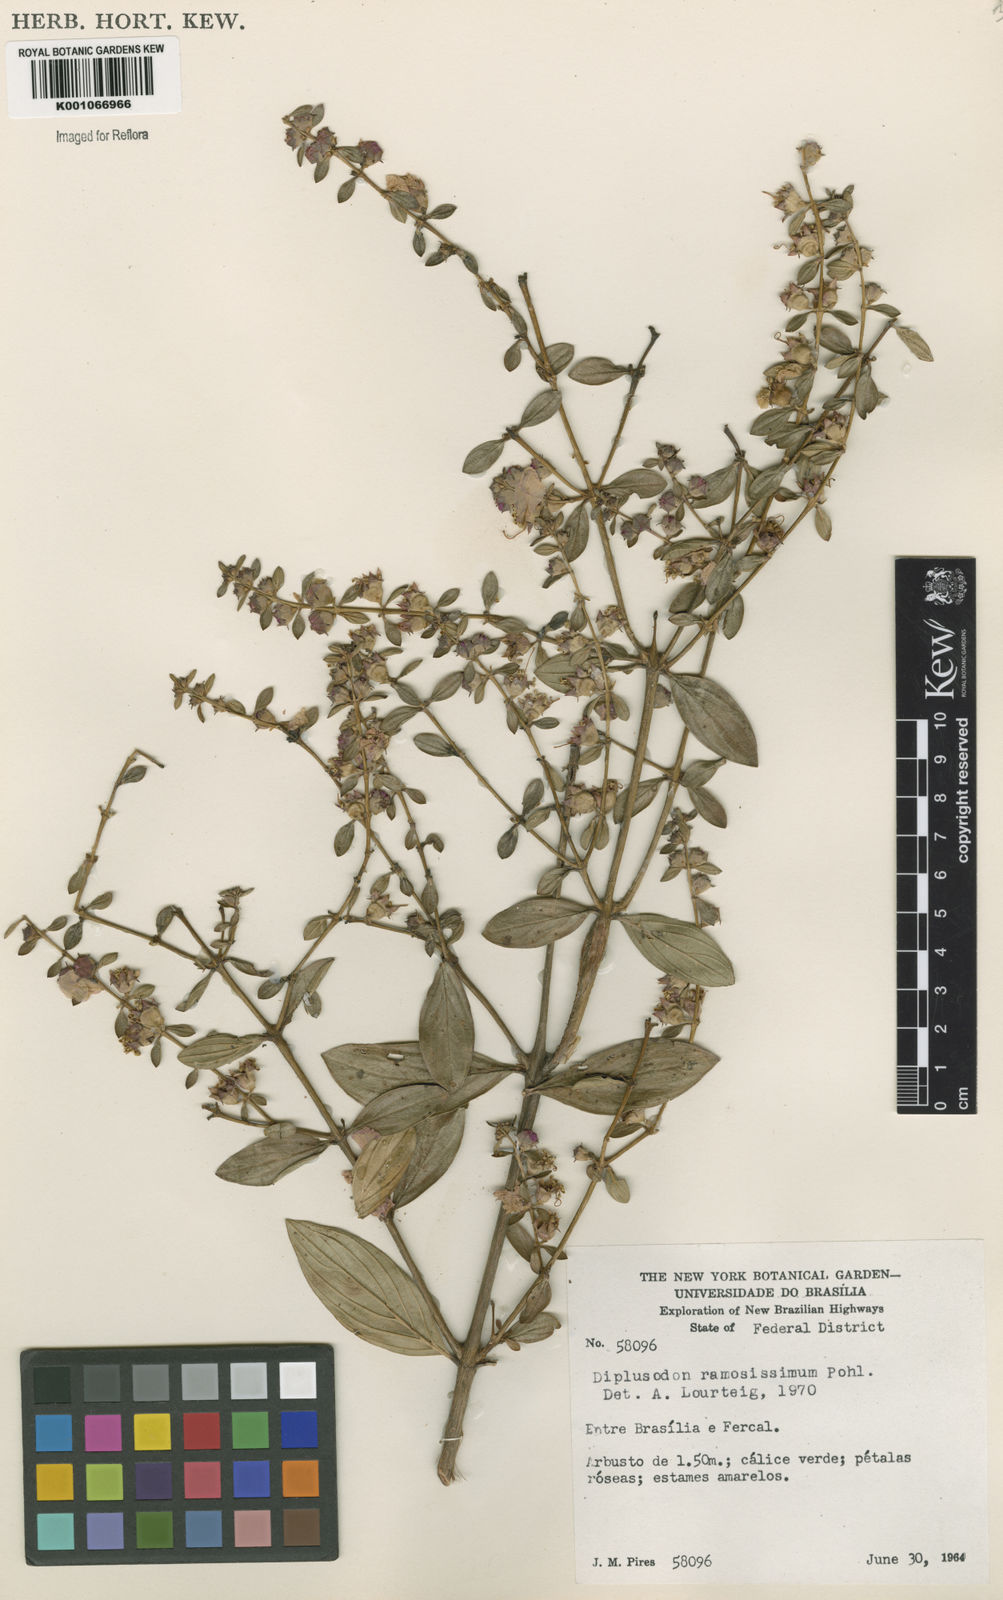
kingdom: Plantae
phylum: Tracheophyta
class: Magnoliopsida
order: Myrtales
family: Lythraceae
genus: Diplusodon
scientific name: Diplusodon ramosissimus
